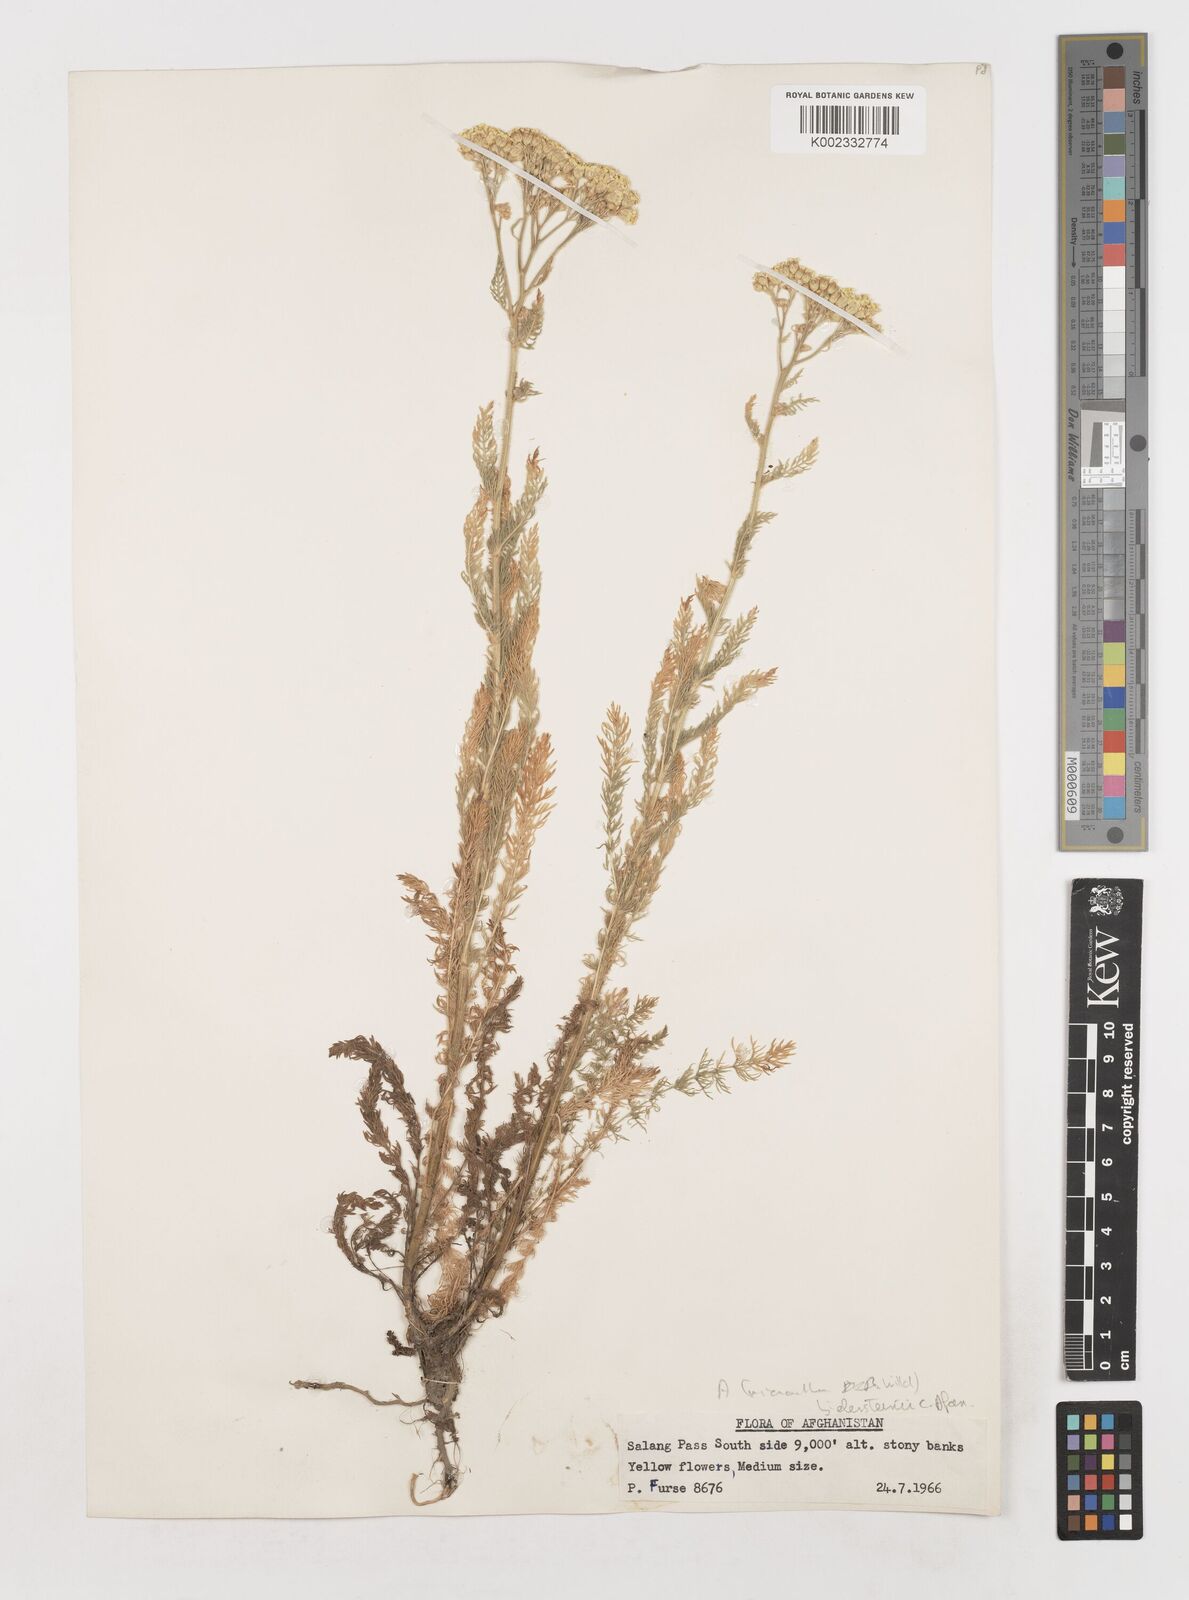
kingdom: Plantae
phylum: Tracheophyta
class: Magnoliopsida
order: Asterales
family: Asteraceae
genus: Achillea
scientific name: Achillea arabica
